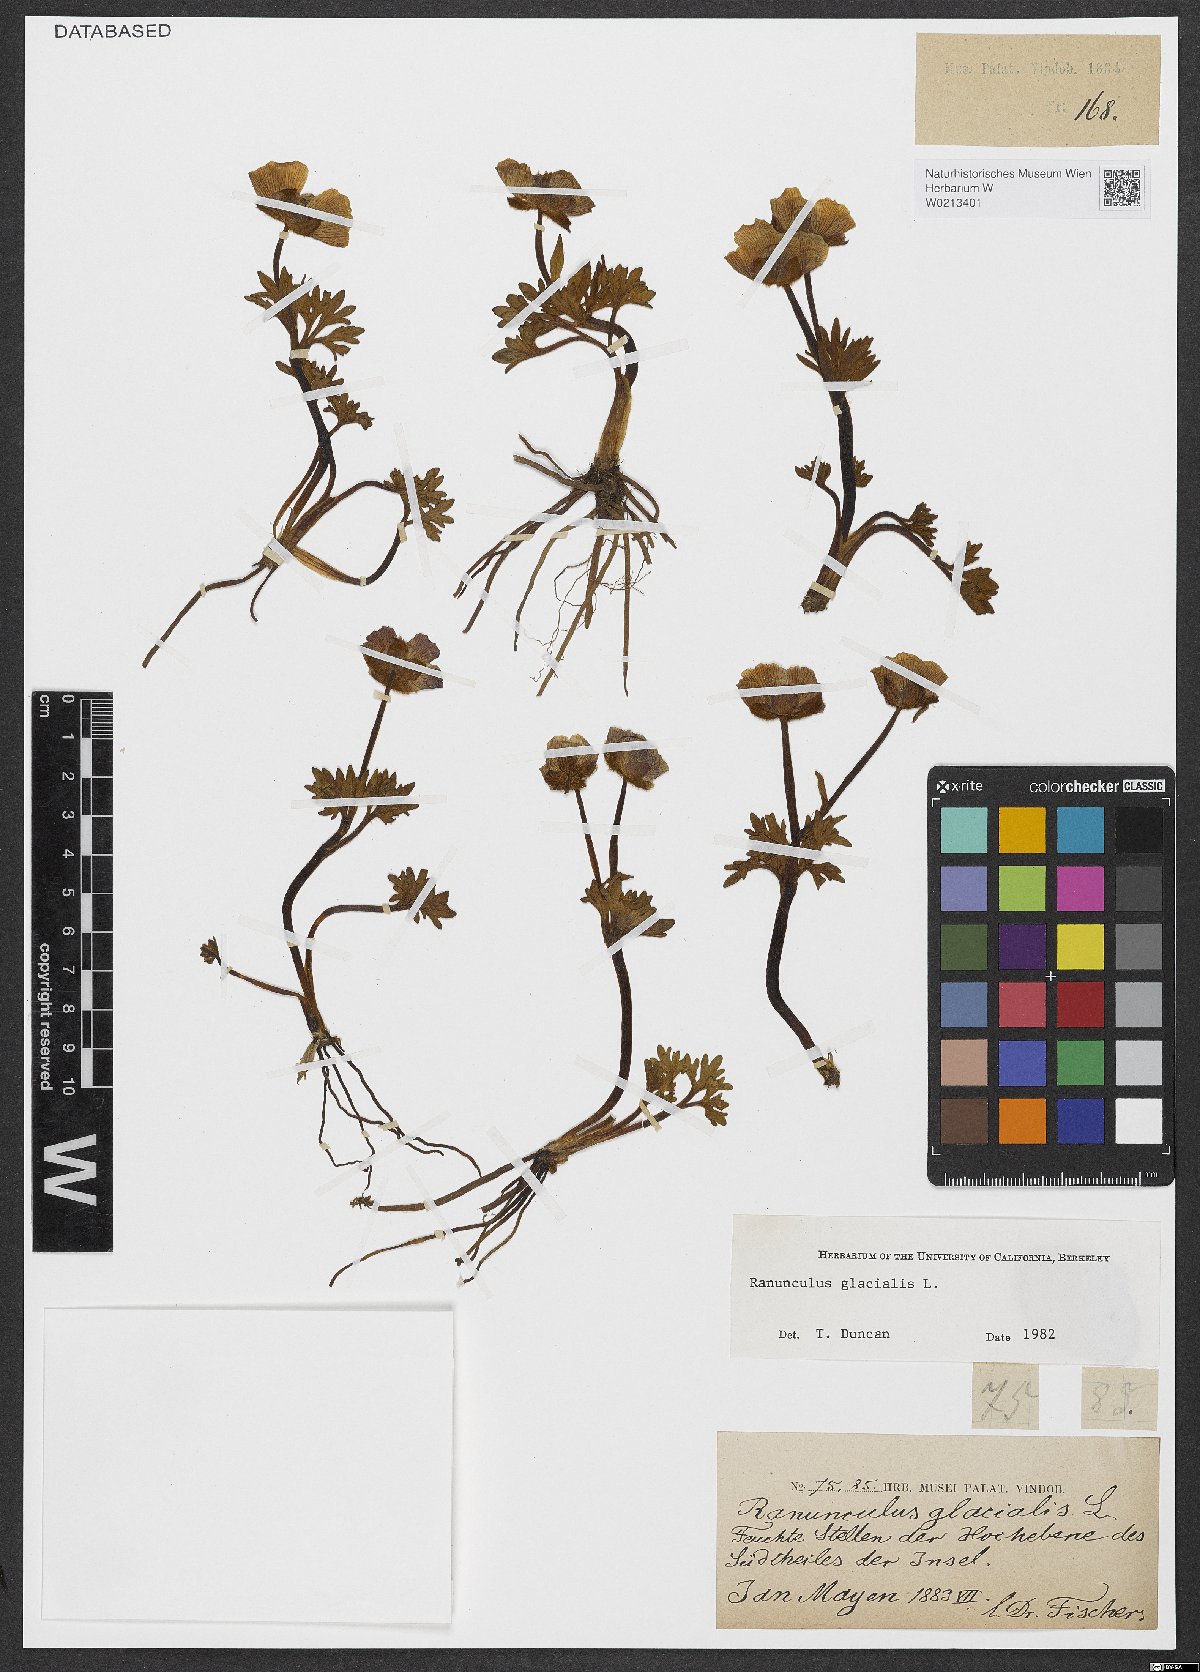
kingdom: Plantae
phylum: Tracheophyta
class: Magnoliopsida
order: Ranunculales
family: Ranunculaceae
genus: Ranunculus
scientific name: Ranunculus glacialis
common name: Glacier buttercup
